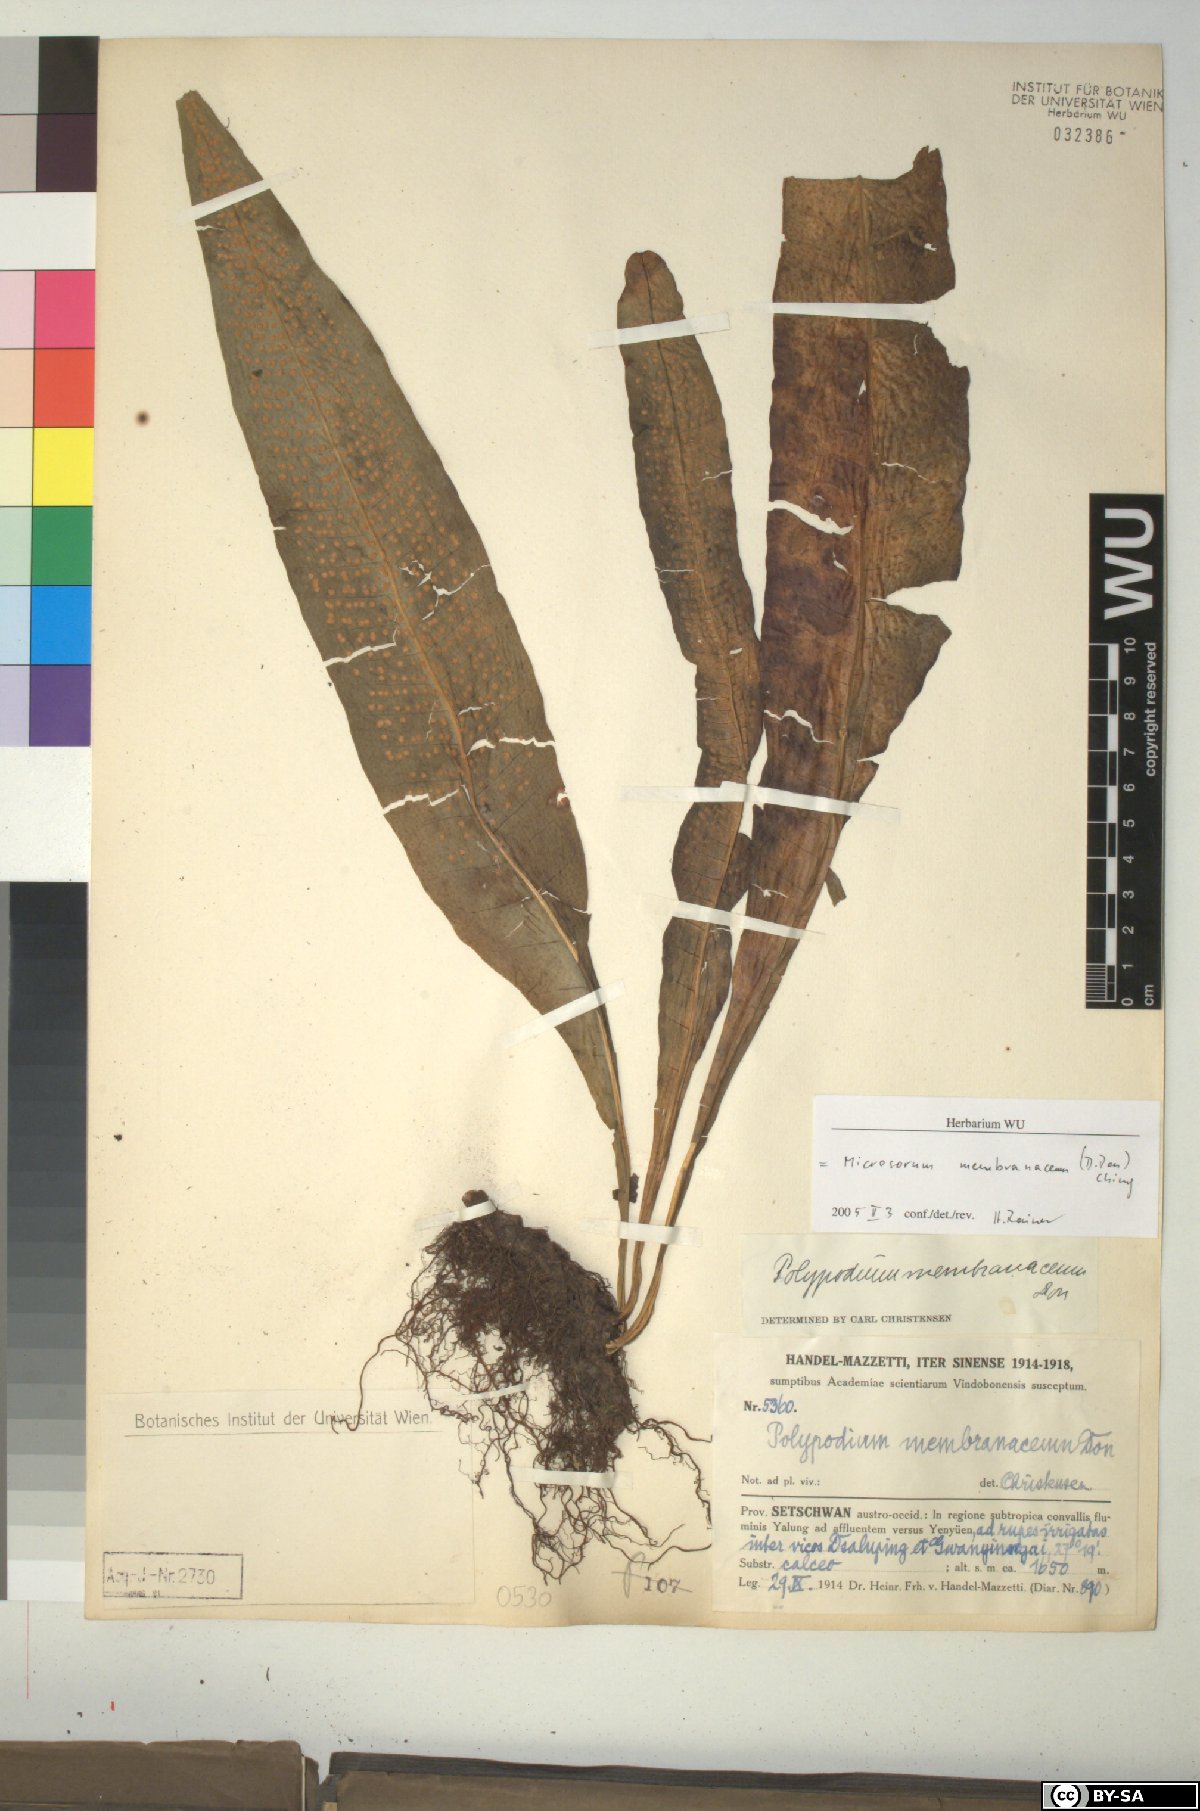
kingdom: Plantae
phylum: Tracheophyta
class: Polypodiopsida
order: Polypodiales
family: Polypodiaceae
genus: Bosmania
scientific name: Bosmania membranacea
